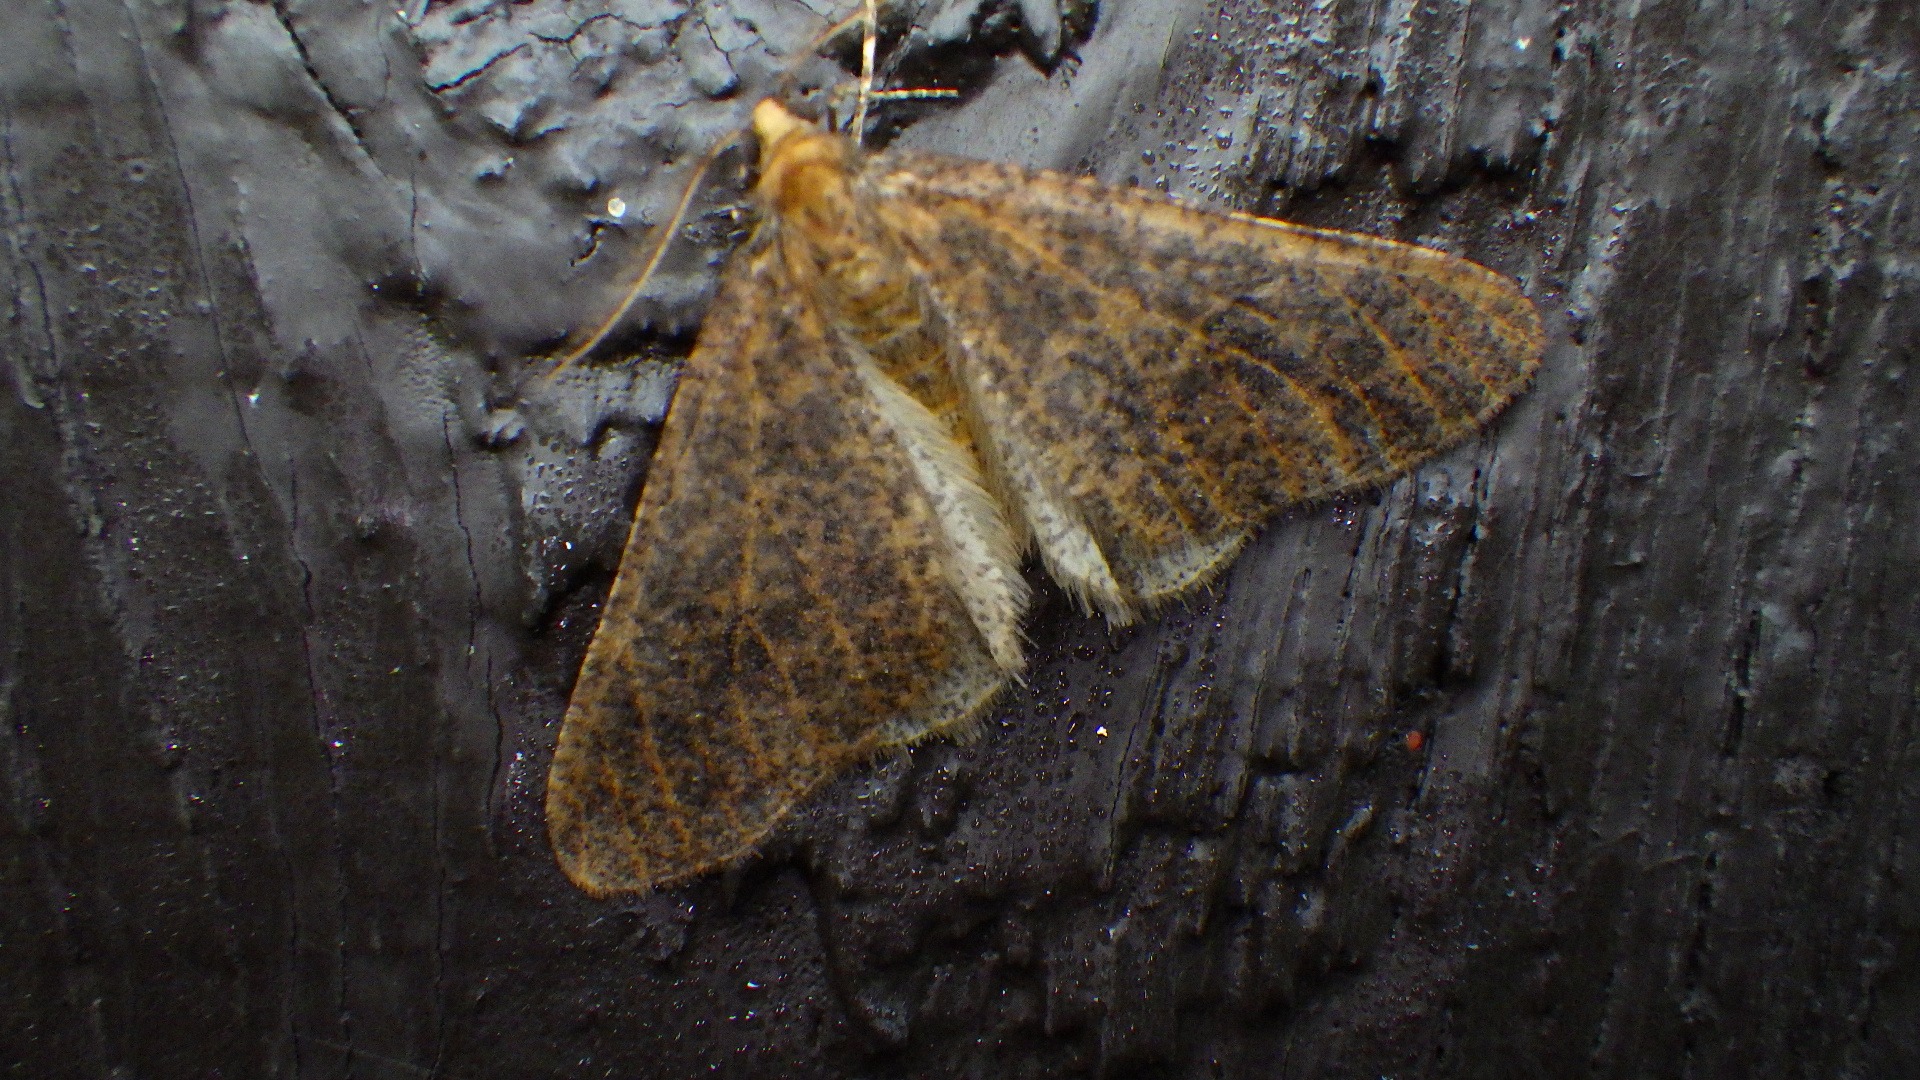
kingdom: Animalia
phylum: Arthropoda
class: Insecta
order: Lepidoptera
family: Geometridae
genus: Erannis
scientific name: Erannis defoliaria
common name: Stor frostmåler
